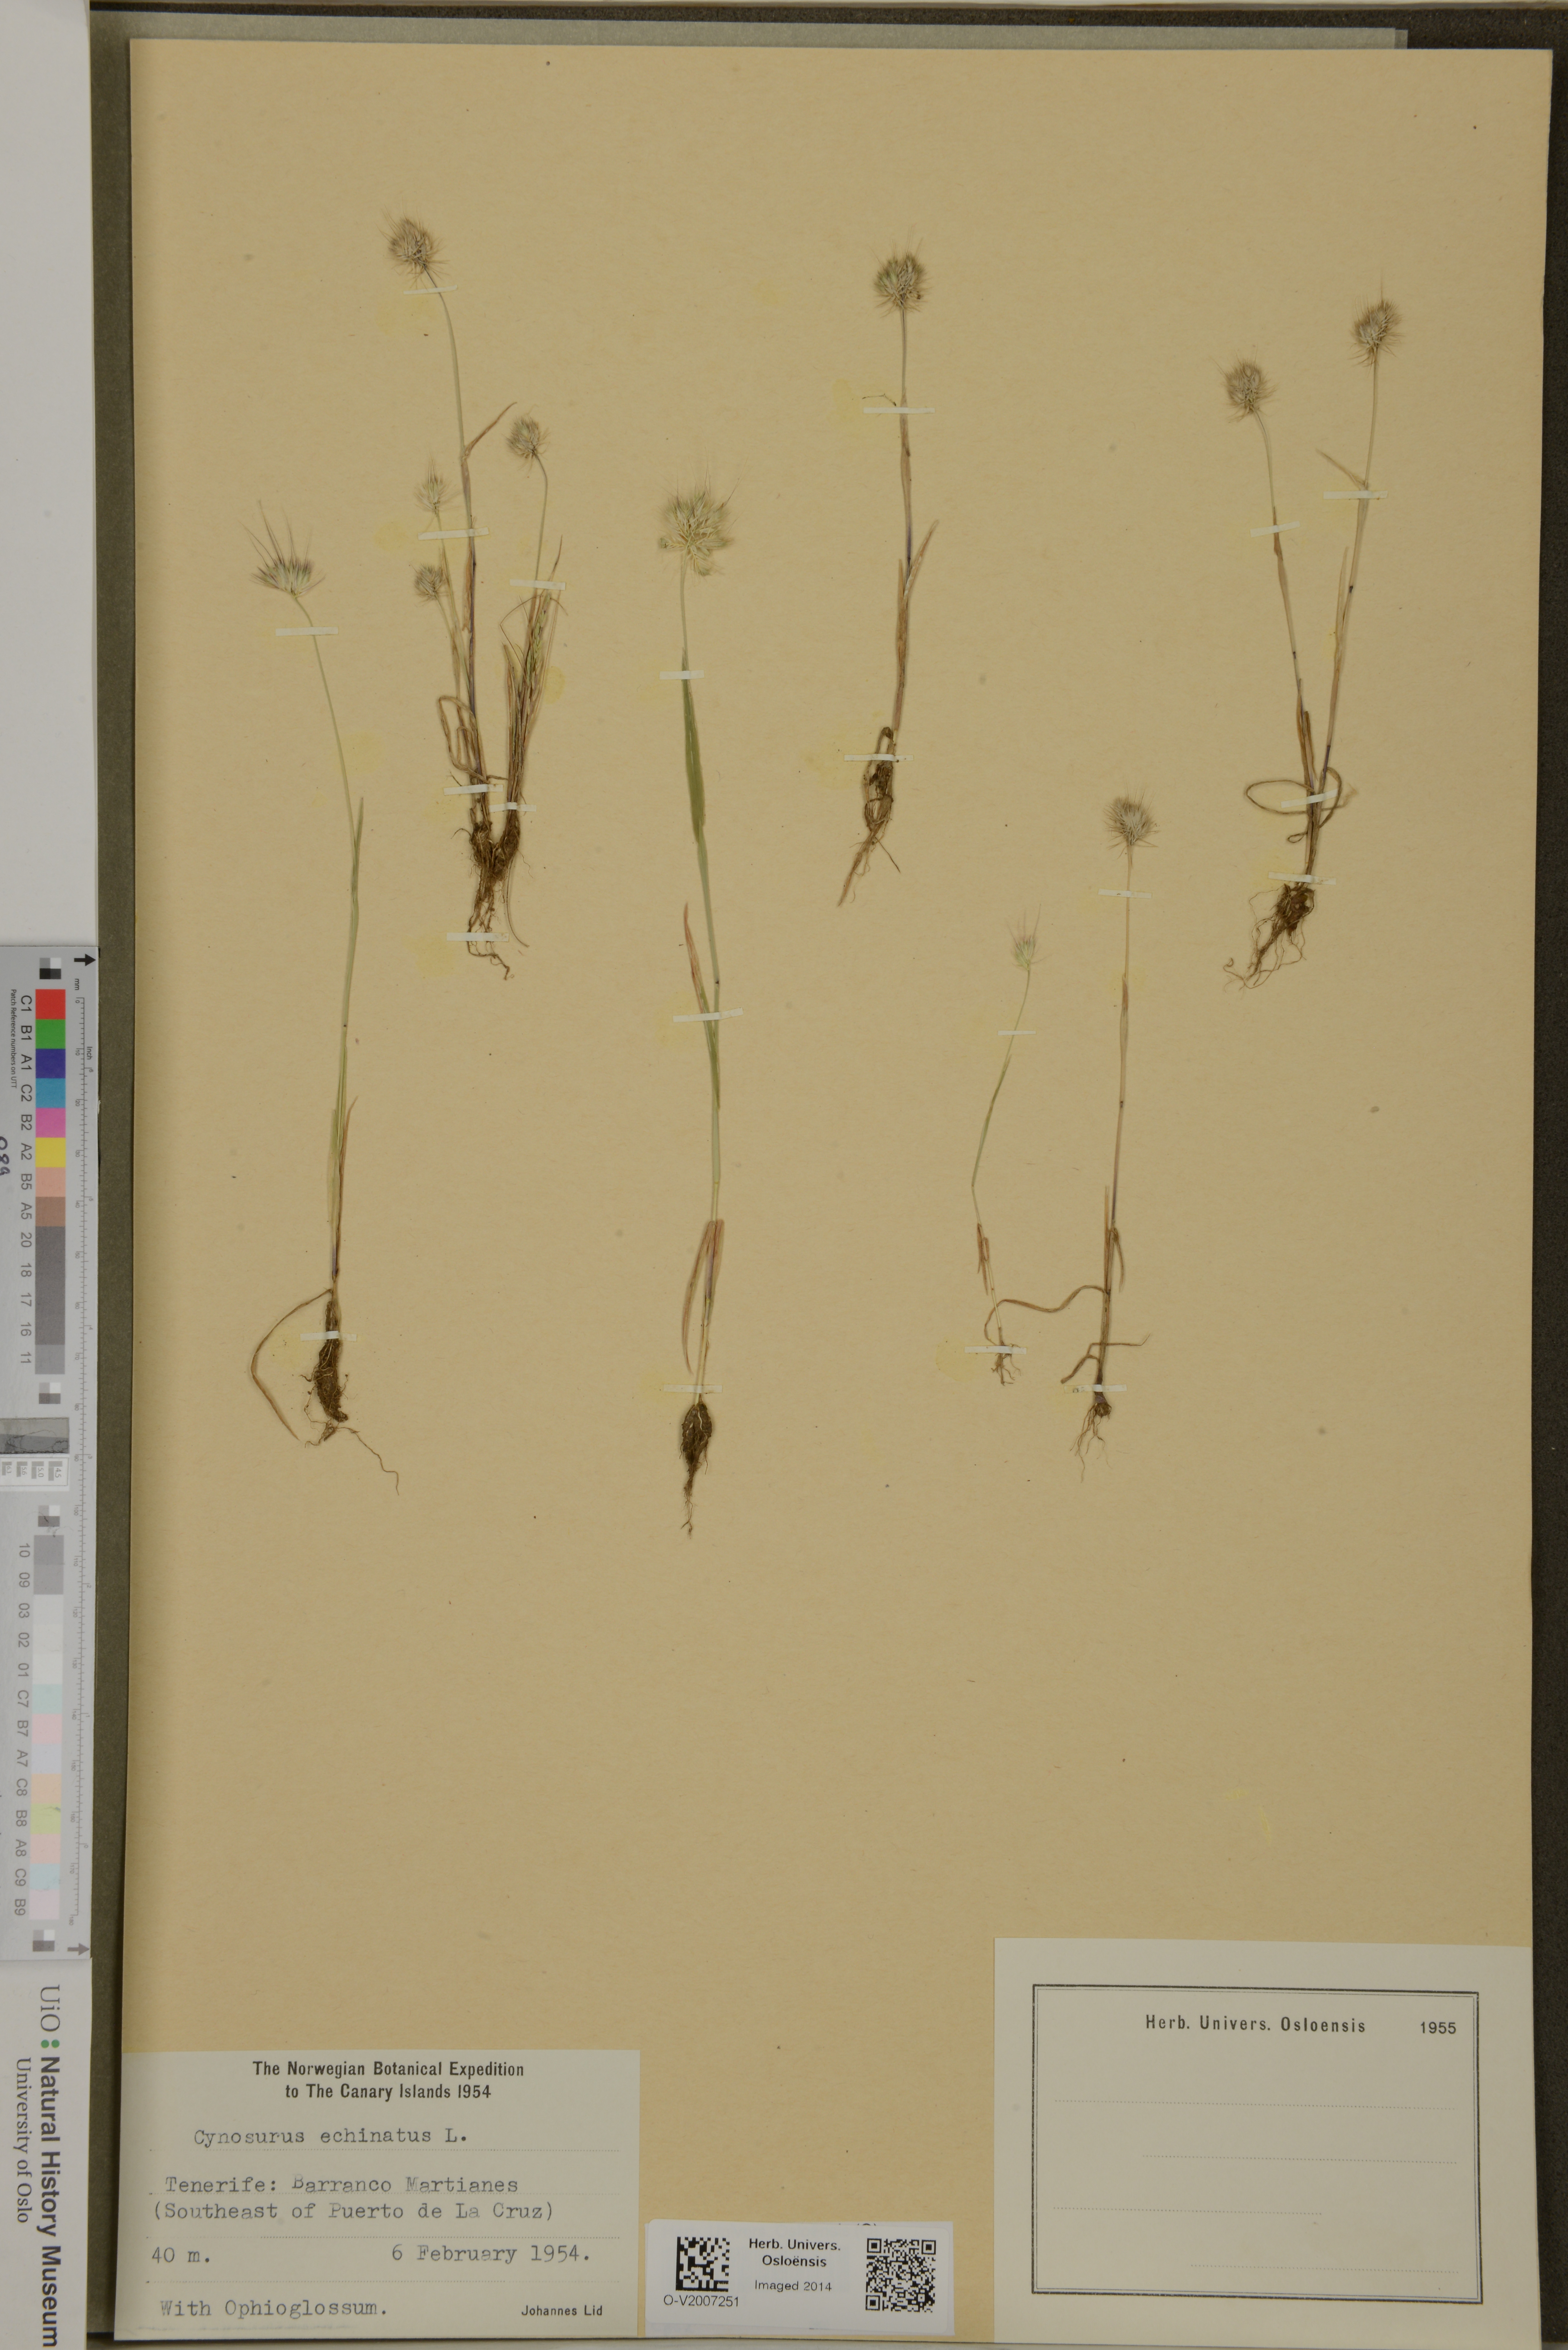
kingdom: Plantae
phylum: Tracheophyta
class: Liliopsida
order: Poales
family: Poaceae
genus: Cynosurus
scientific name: Cynosurus echinatus
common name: Rough dog's-tail
